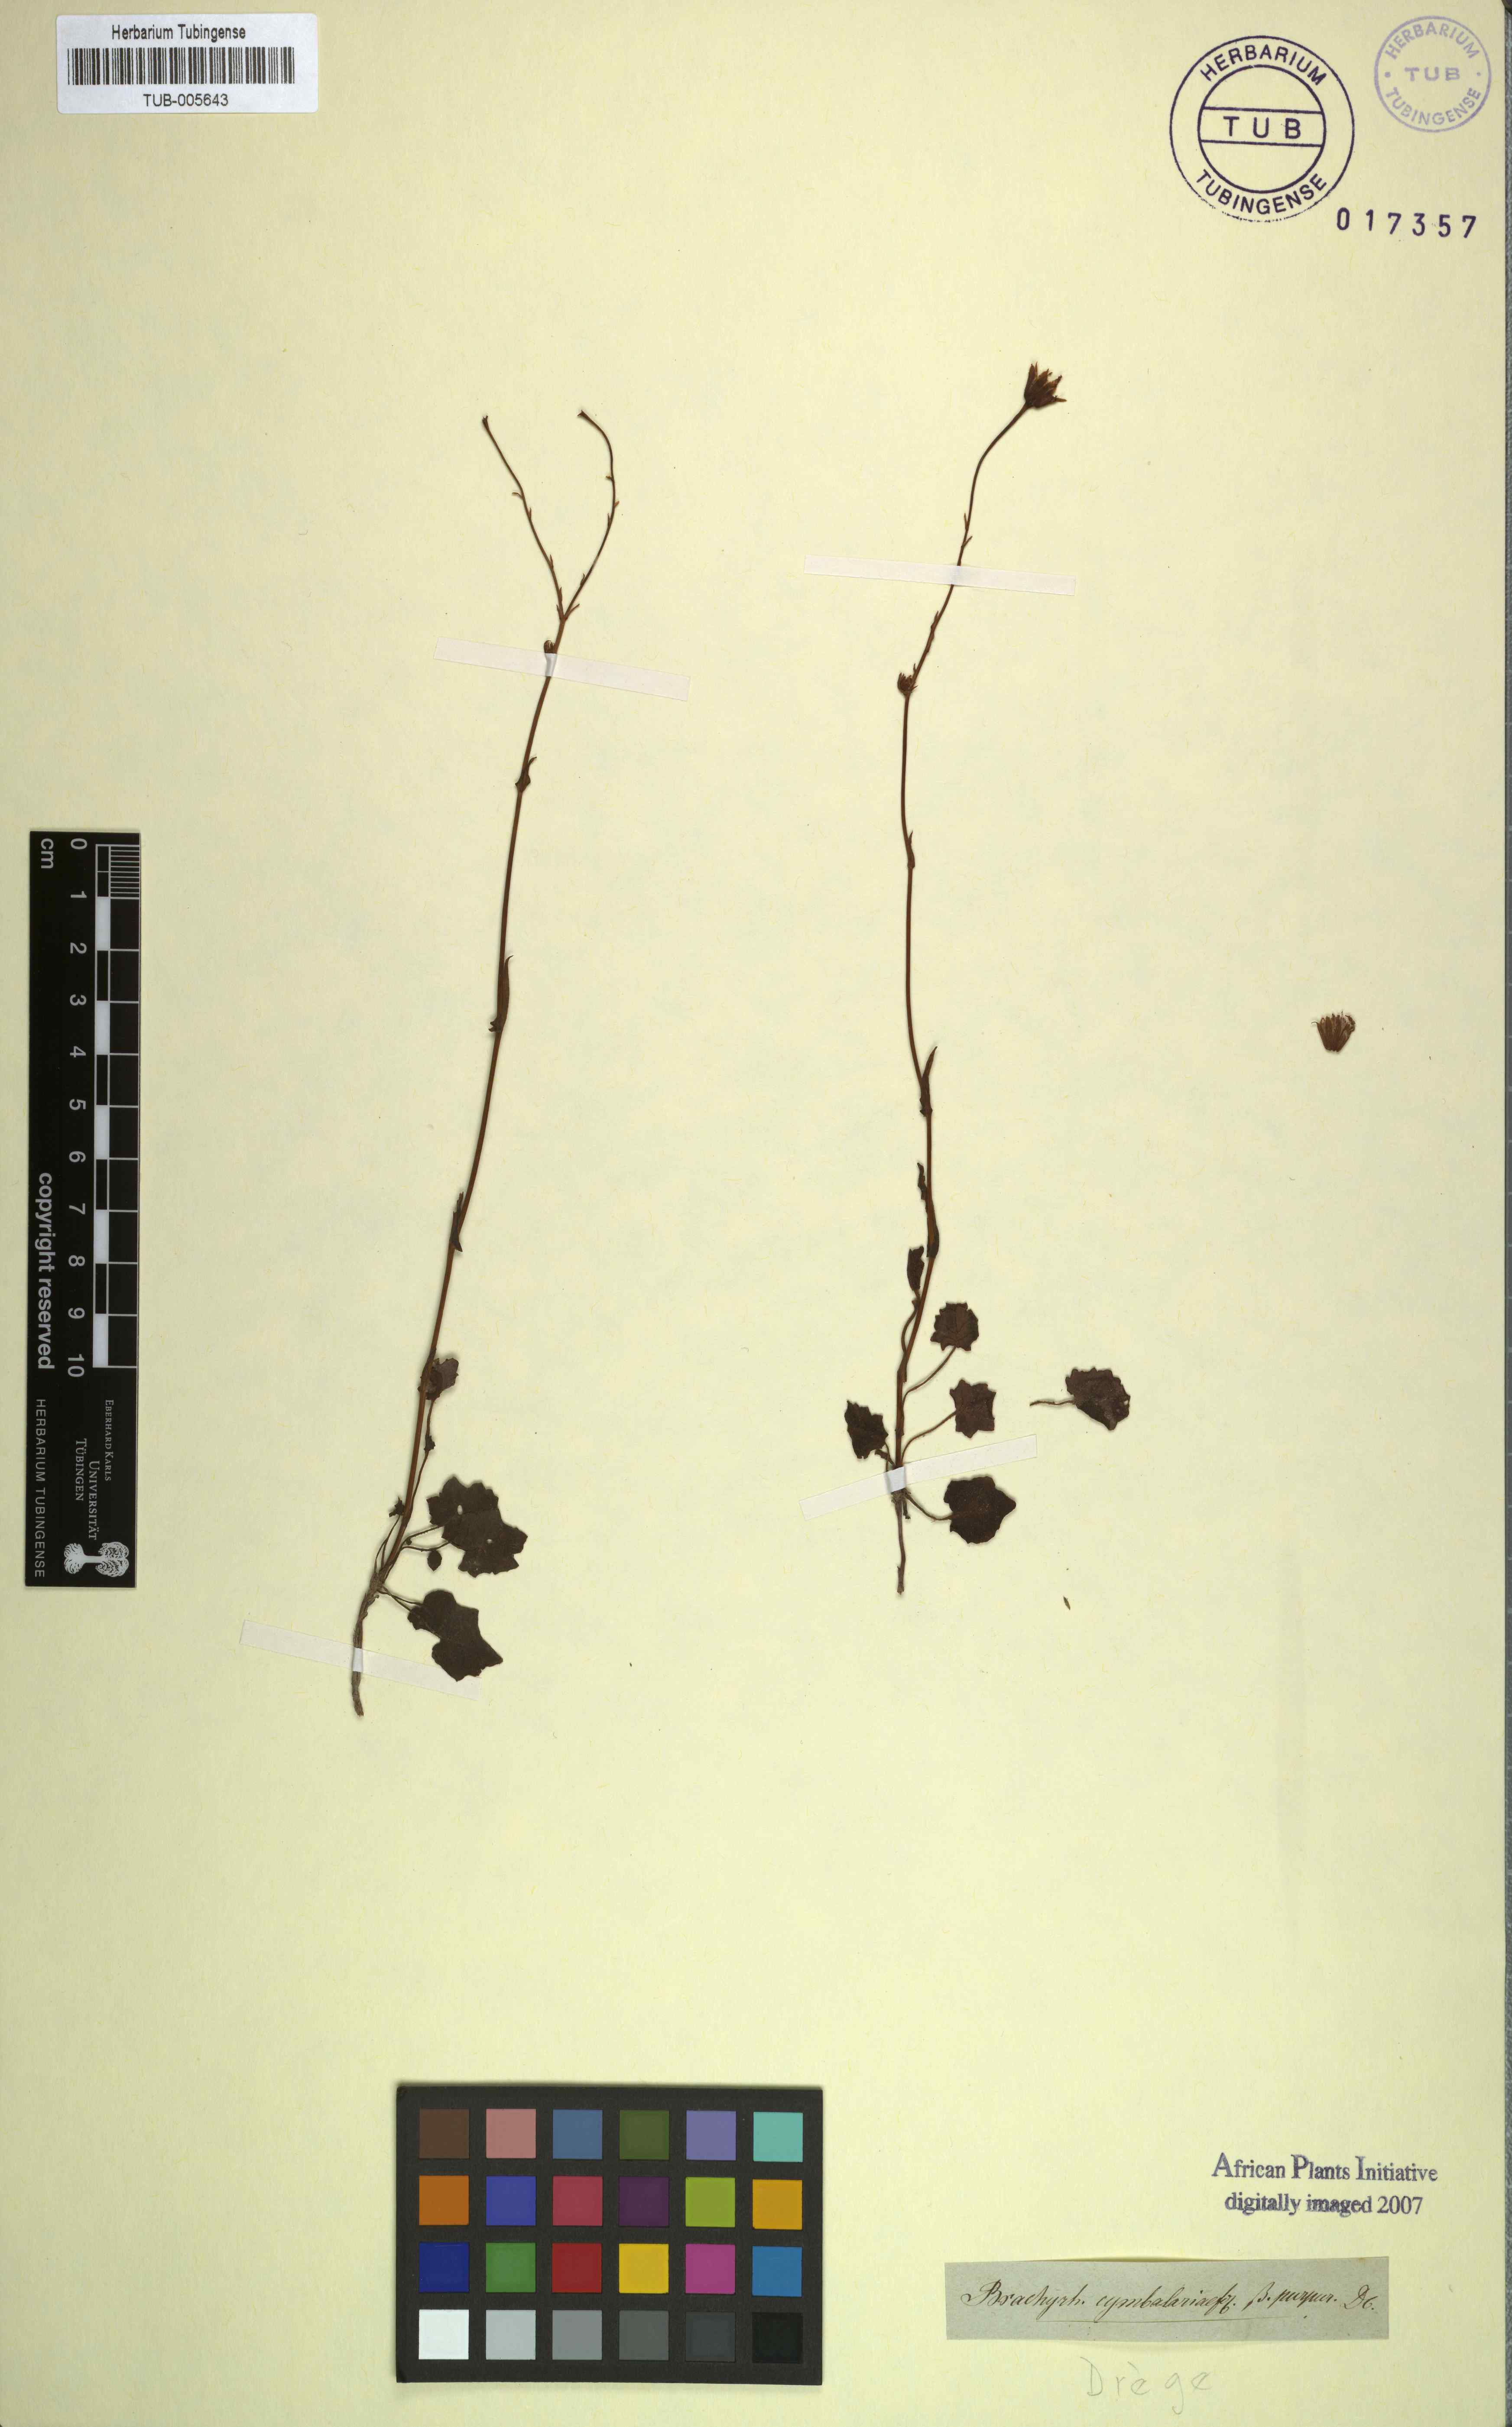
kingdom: Plantae
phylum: Tracheophyta
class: Magnoliopsida
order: Asterales
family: Asteraceae
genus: Senecio
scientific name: Senecio cymbalariifolius
